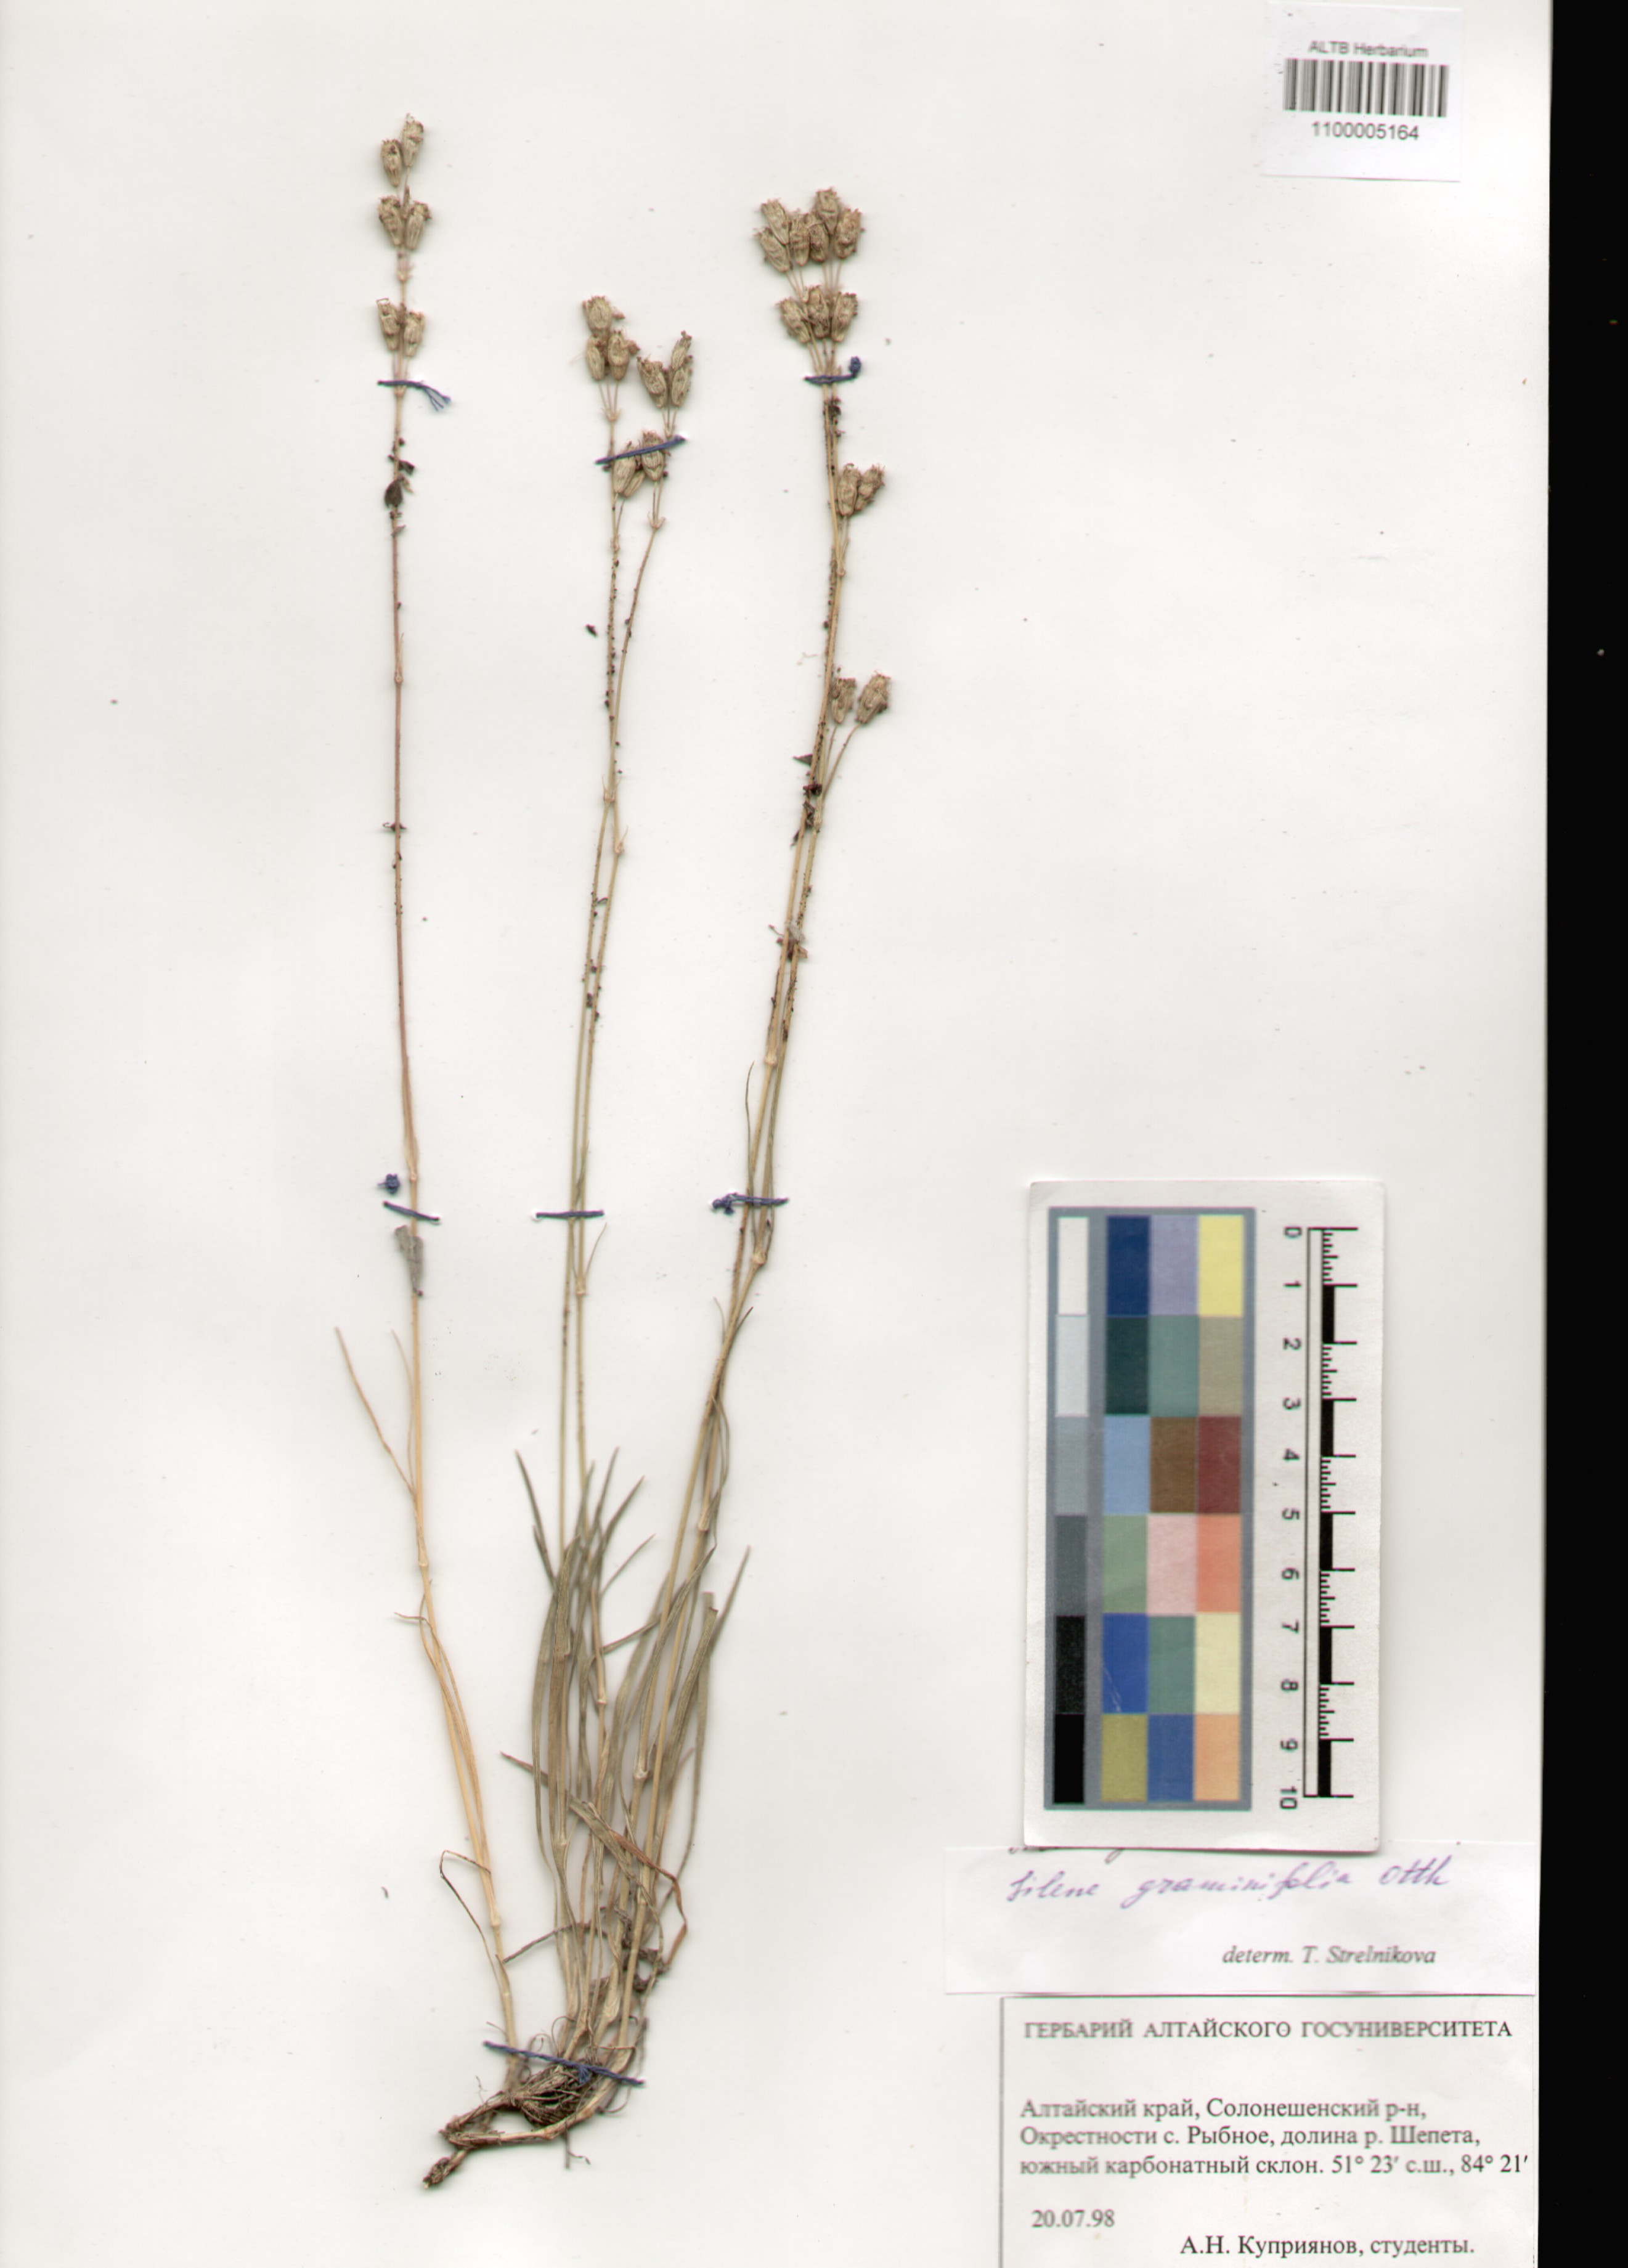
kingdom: Plantae
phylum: Tracheophyta
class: Magnoliopsida
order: Caryophyllales
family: Caryophyllaceae
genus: Silene
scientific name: Silene graminifolia
